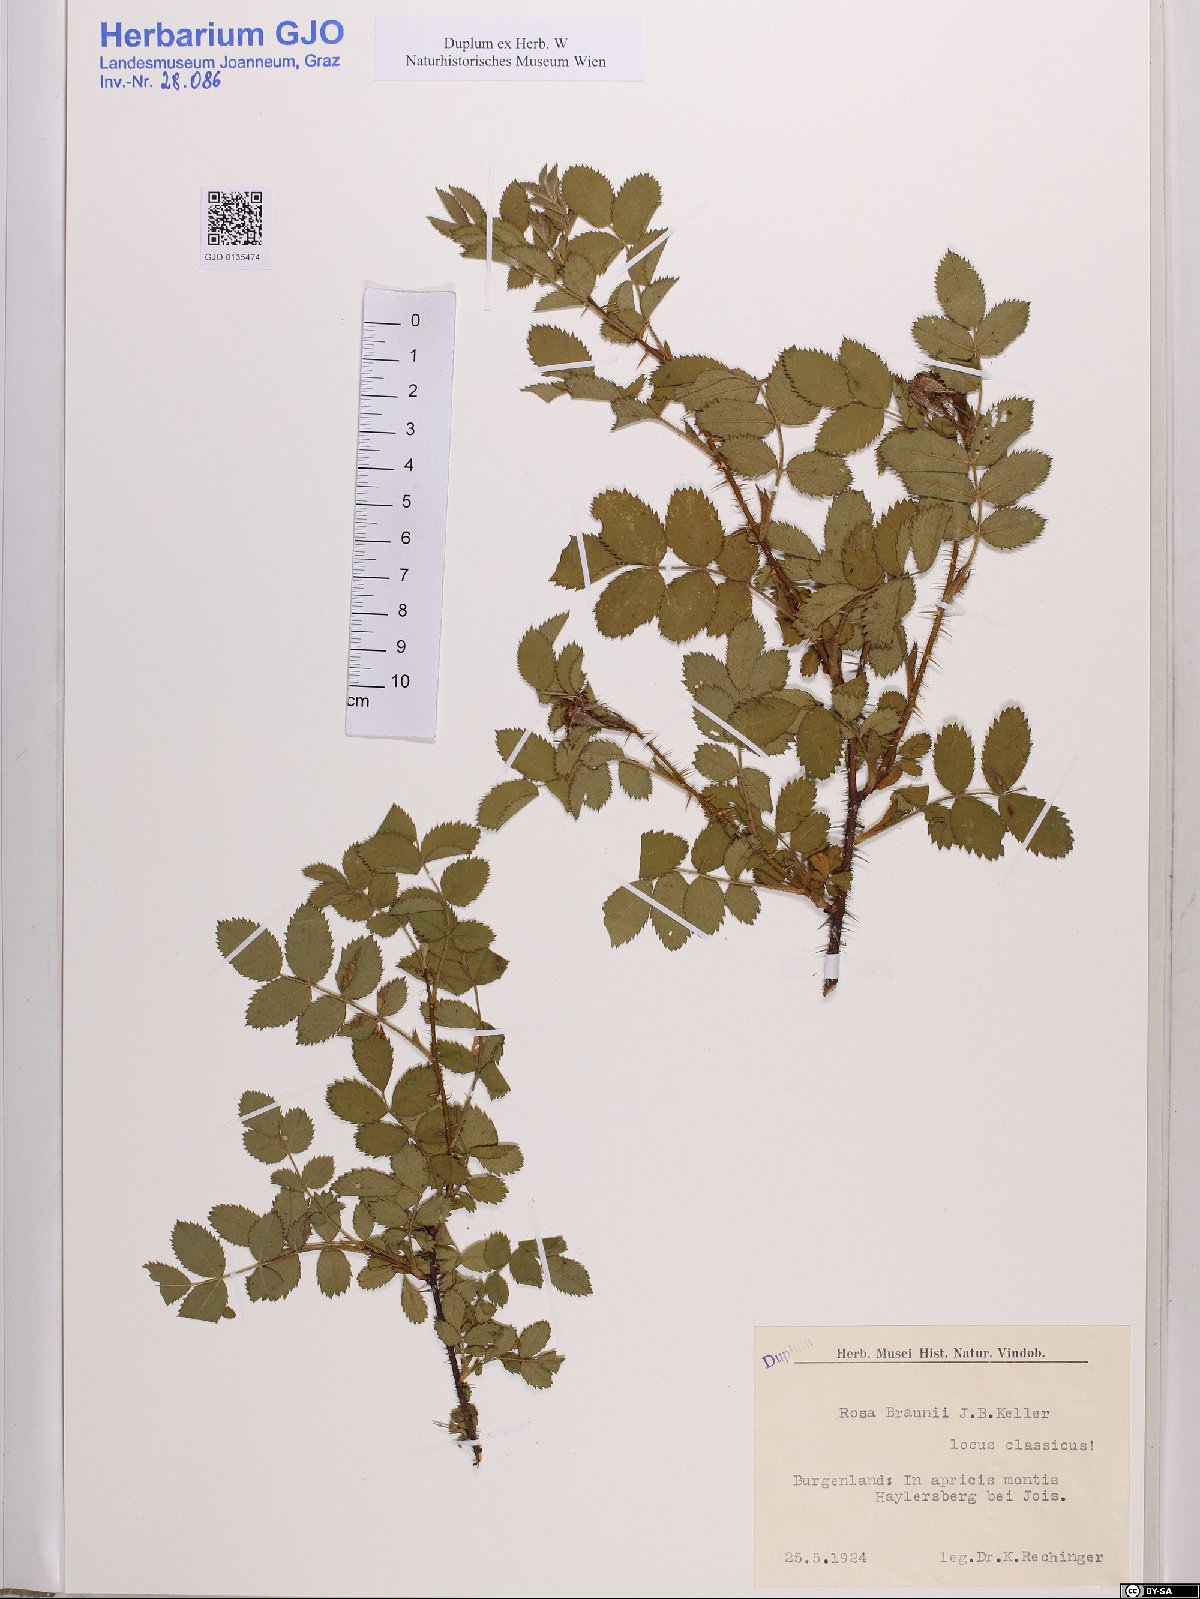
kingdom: Plantae
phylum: Tracheophyta
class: Magnoliopsida
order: Rosales
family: Rosaceae
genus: Rosa
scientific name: Rosa coronata
